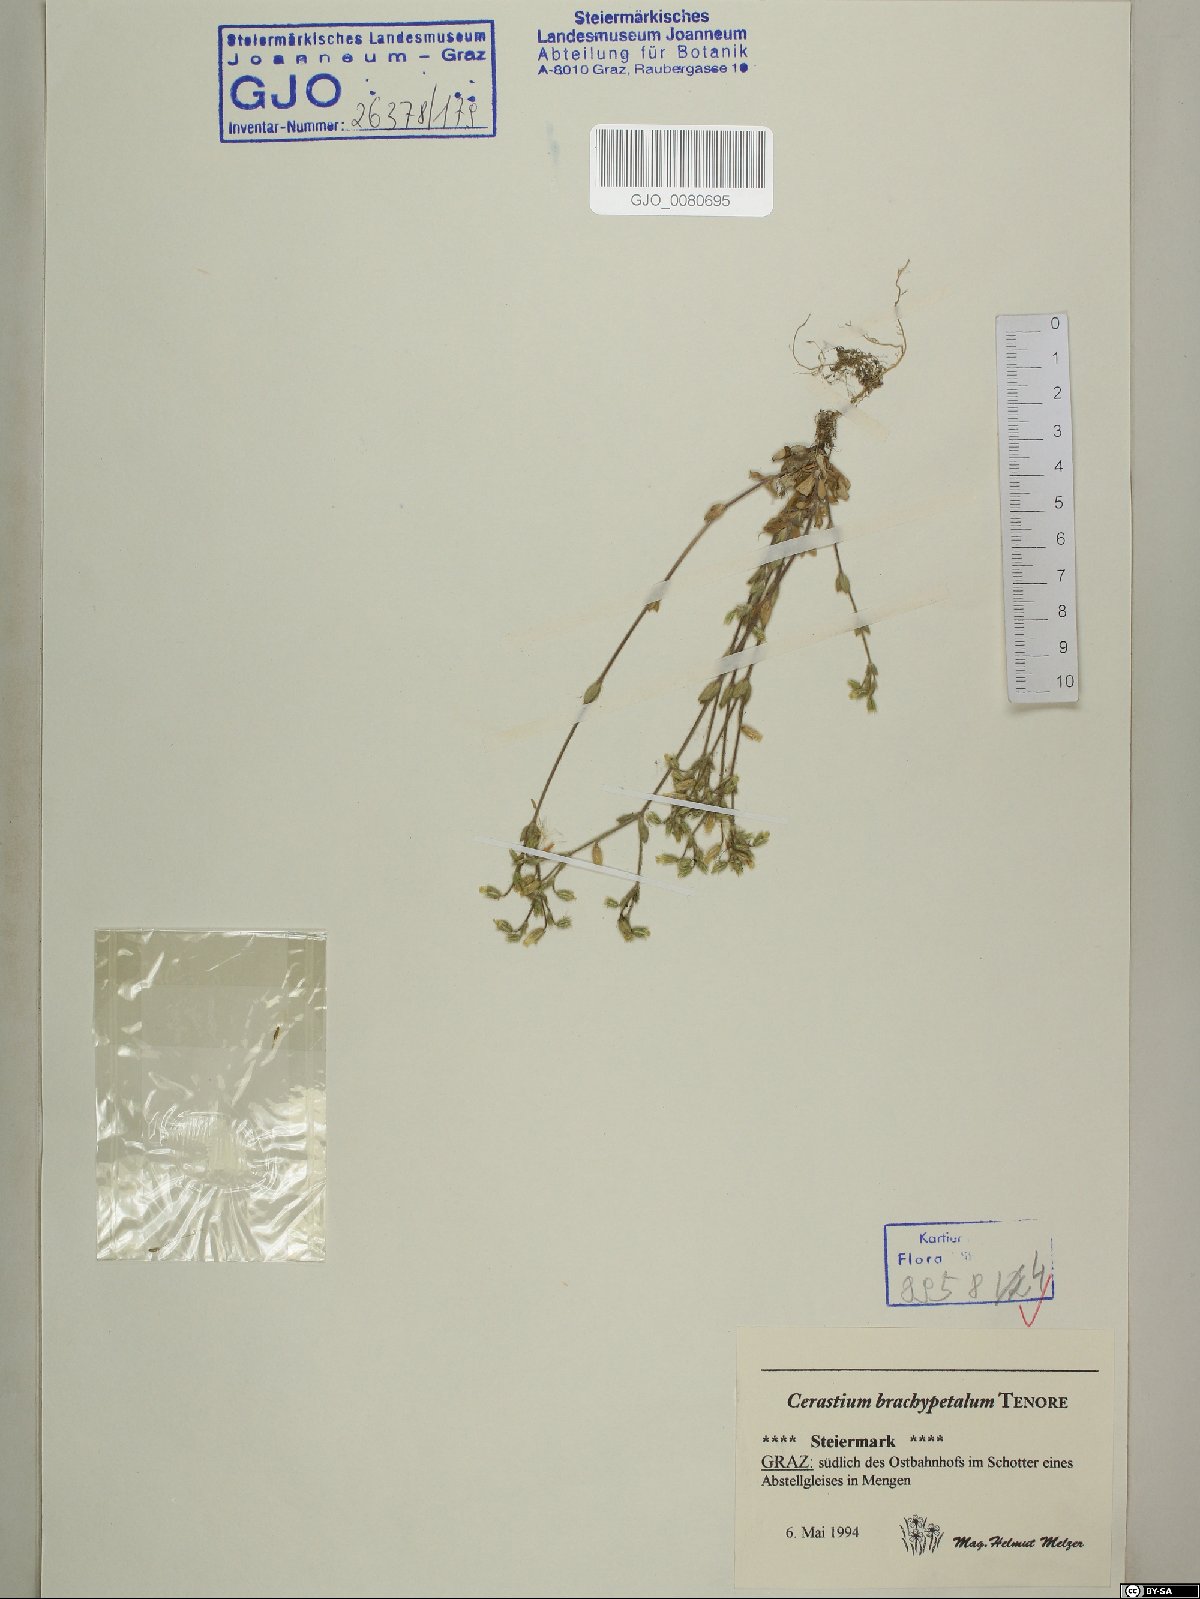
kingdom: Plantae
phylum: Tracheophyta
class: Magnoliopsida
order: Caryophyllales
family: Caryophyllaceae
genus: Cerastium
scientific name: Cerastium brachypetalum
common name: Grey mouse-ear
